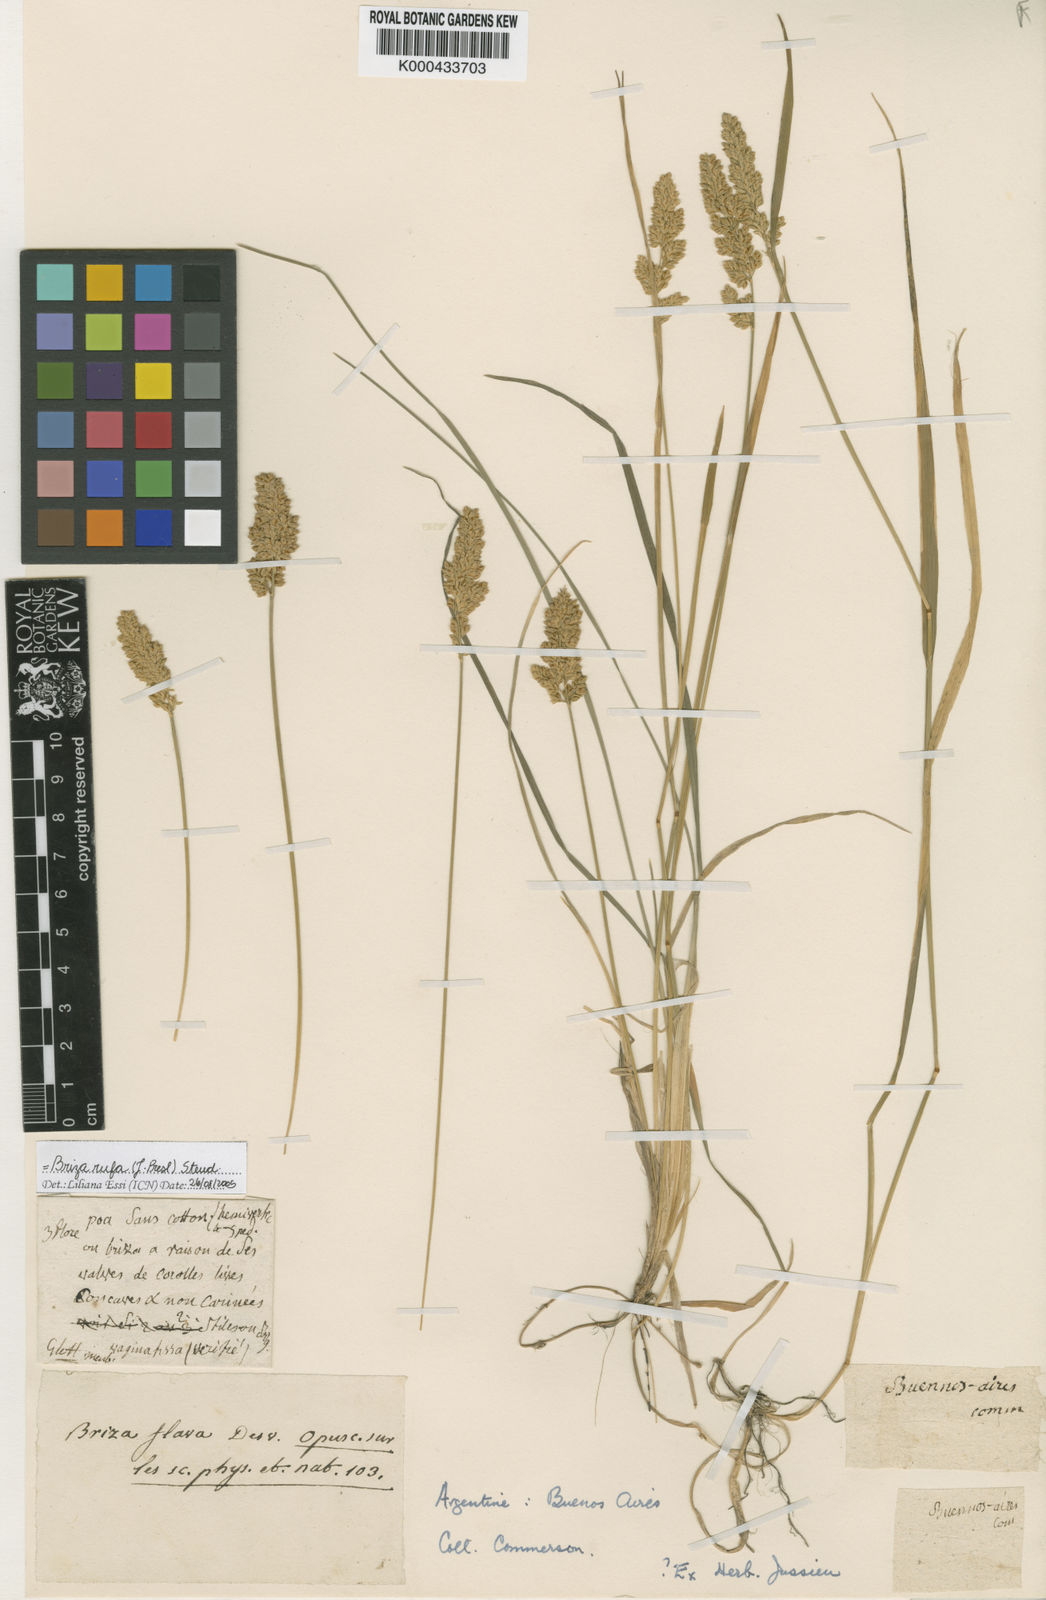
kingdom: Plantae
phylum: Tracheophyta
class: Liliopsida
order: Poales
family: Poaceae
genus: Poidium
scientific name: Poidium uniolae
